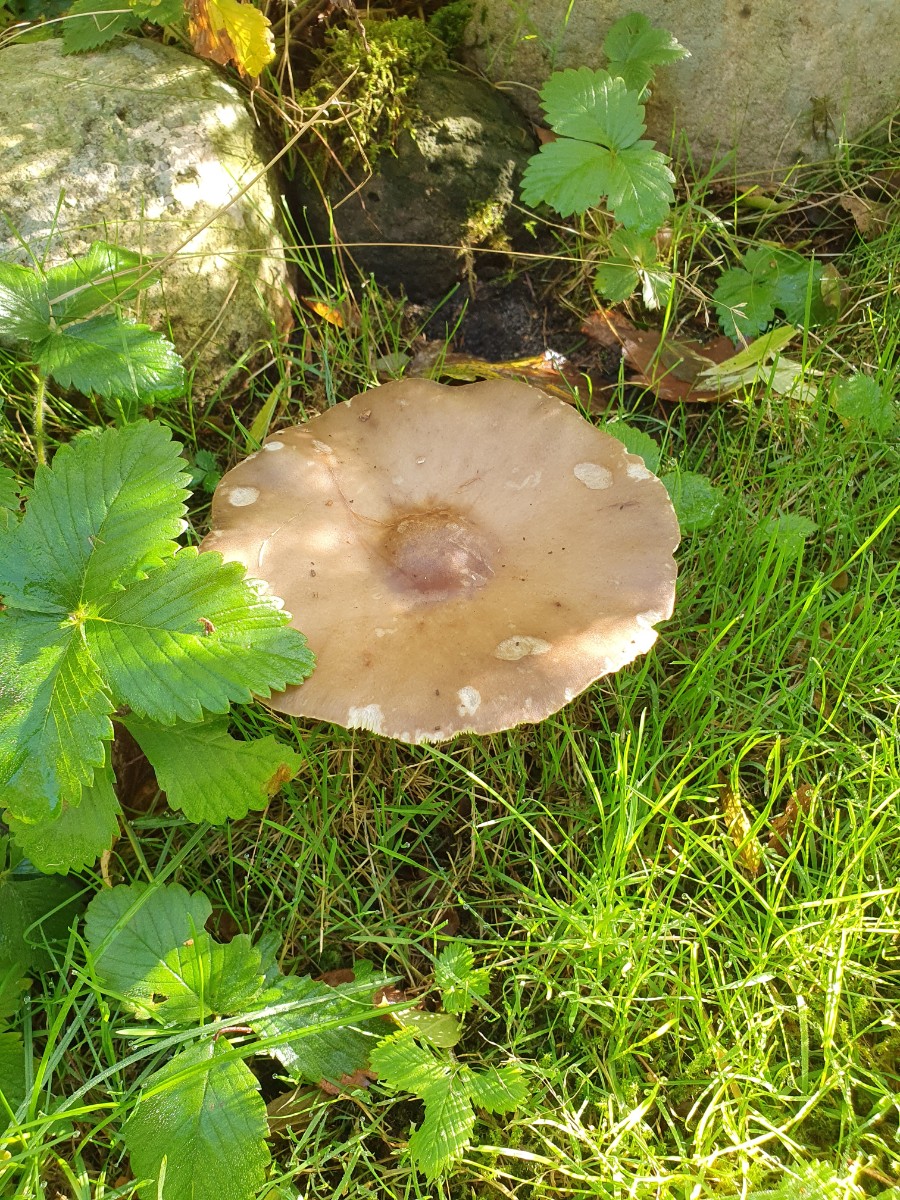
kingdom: Fungi
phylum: Basidiomycota
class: Agaricomycetes
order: Agaricales
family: Tricholomataceae
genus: Melanoleuca
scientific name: Melanoleuca grammopodia
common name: stribestokket munkehat
